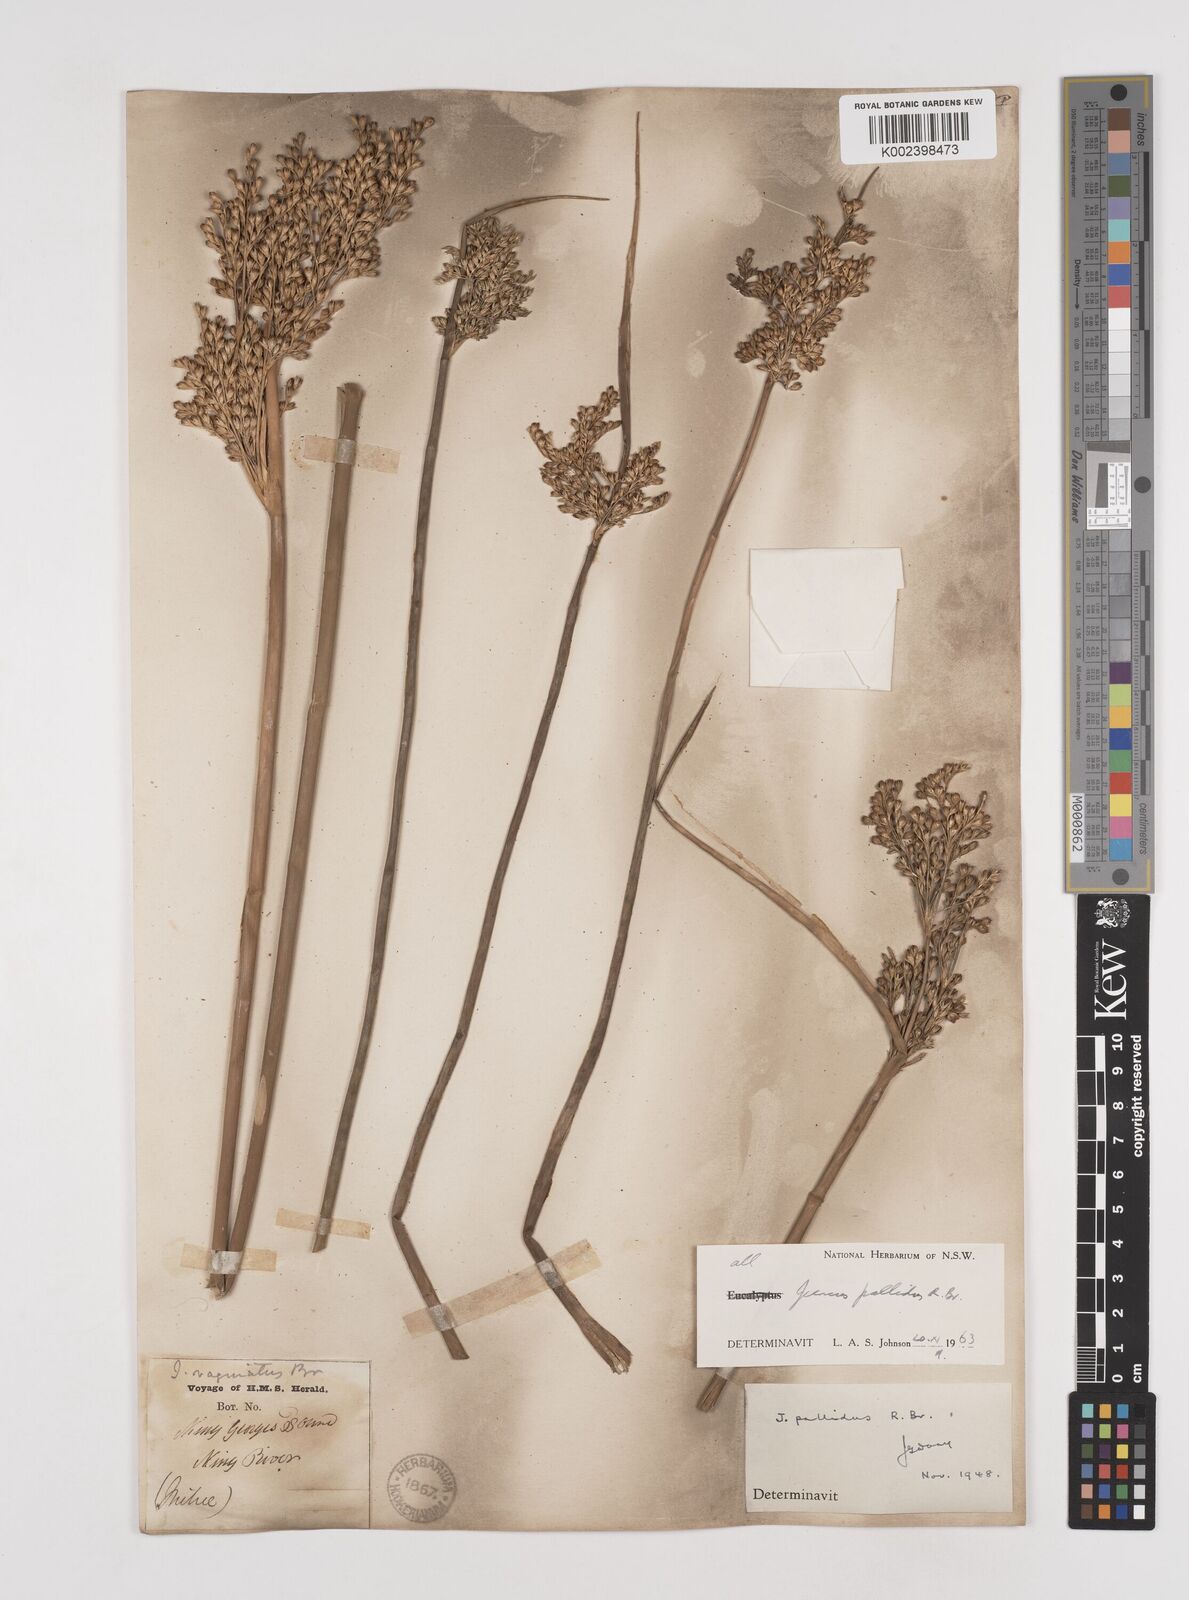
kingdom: Plantae
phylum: Tracheophyta
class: Liliopsida
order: Poales
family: Juncaceae
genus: Juncus
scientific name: Juncus pallidus
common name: Great soft-rush
